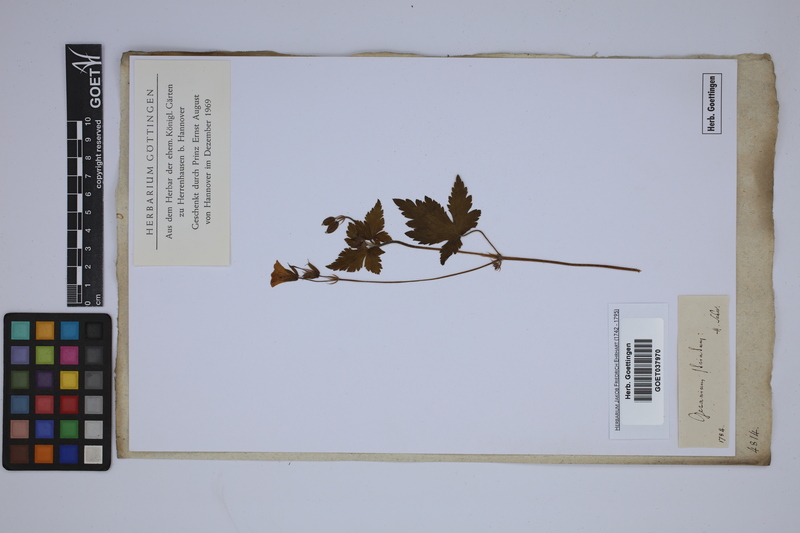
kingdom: Plantae
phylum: Tracheophyta
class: Magnoliopsida
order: Geraniales
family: Geraniaceae
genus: Geranium
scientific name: Geranium versicolor
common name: Pencilled crane's-bill
